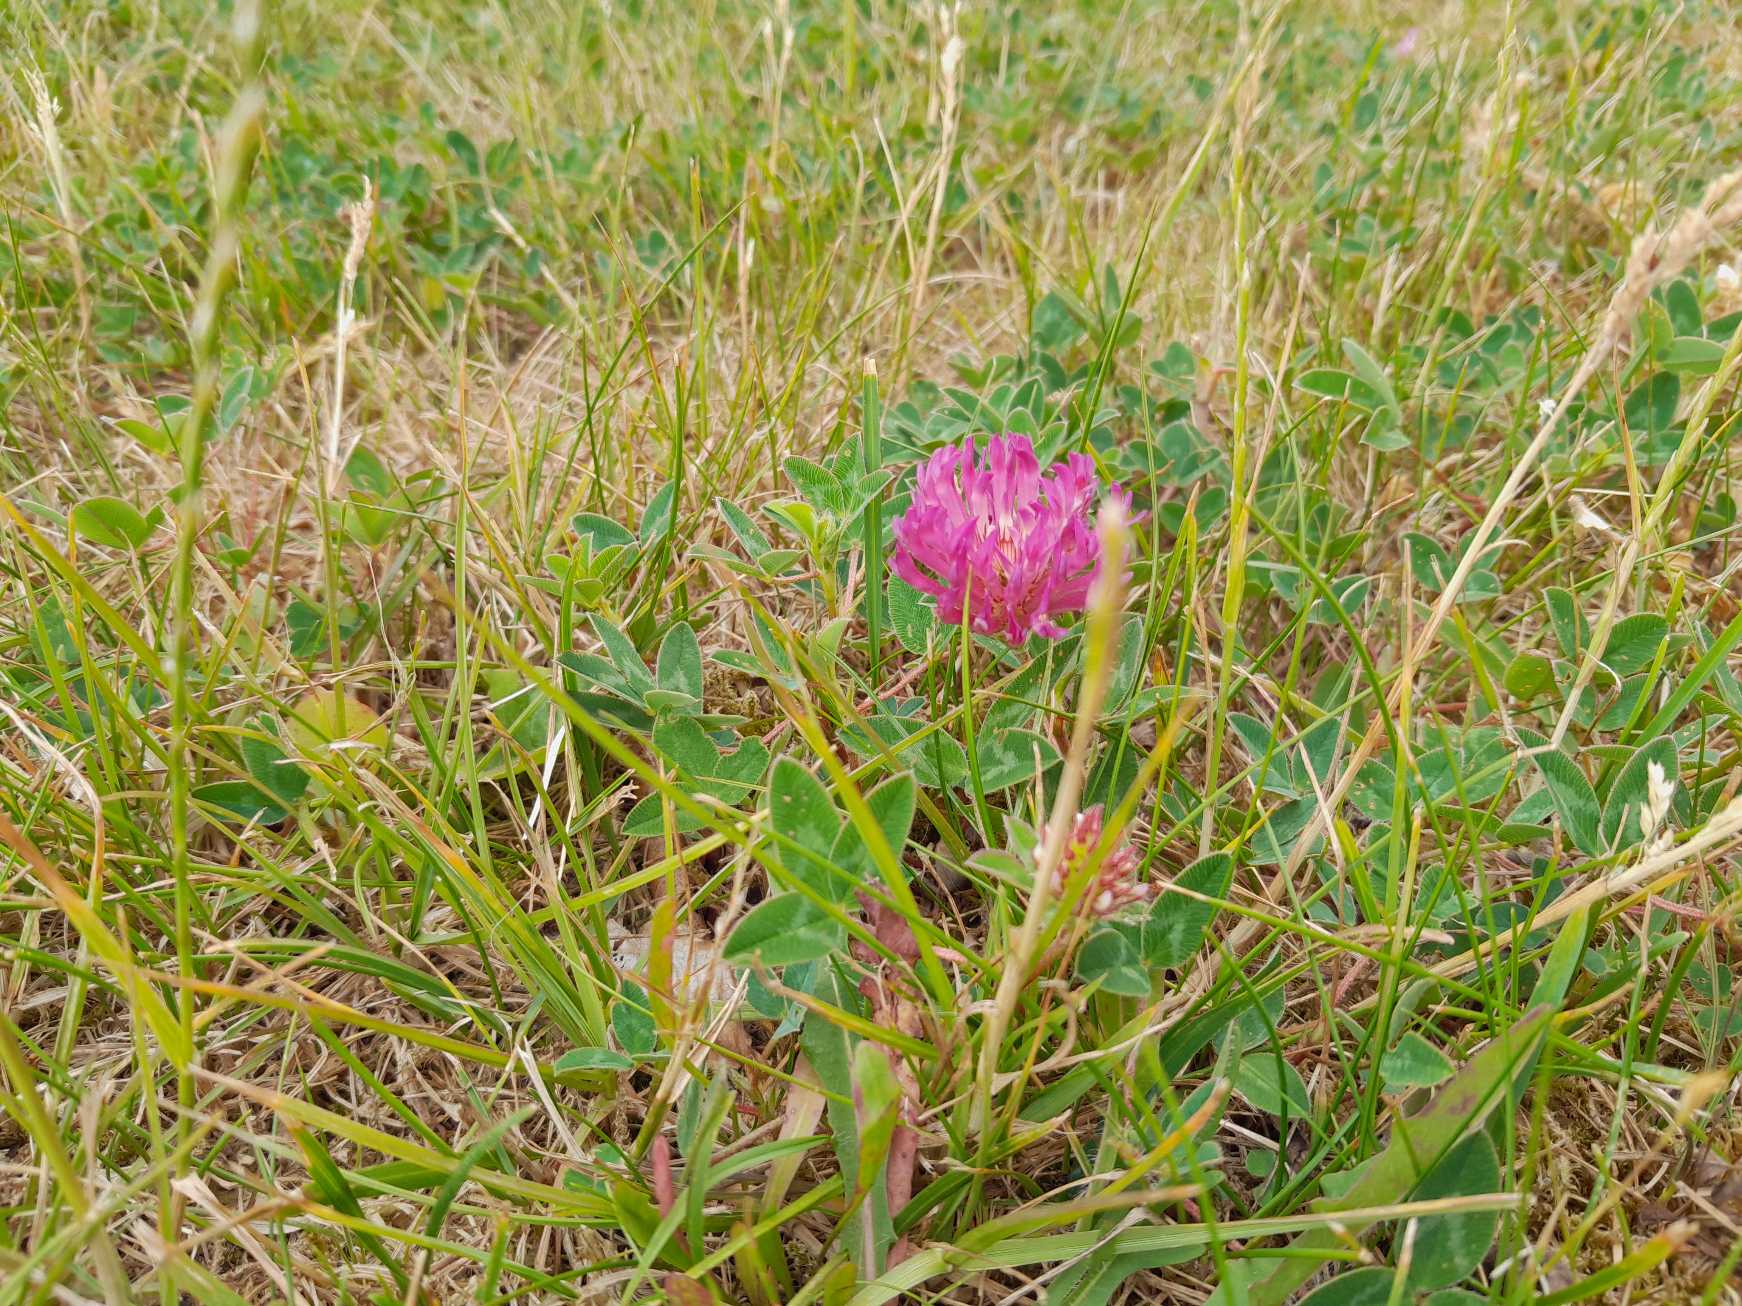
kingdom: Plantae
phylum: Tracheophyta
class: Magnoliopsida
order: Fabales
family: Fabaceae
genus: Trifolium
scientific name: Trifolium medium
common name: Bugtet kløver
